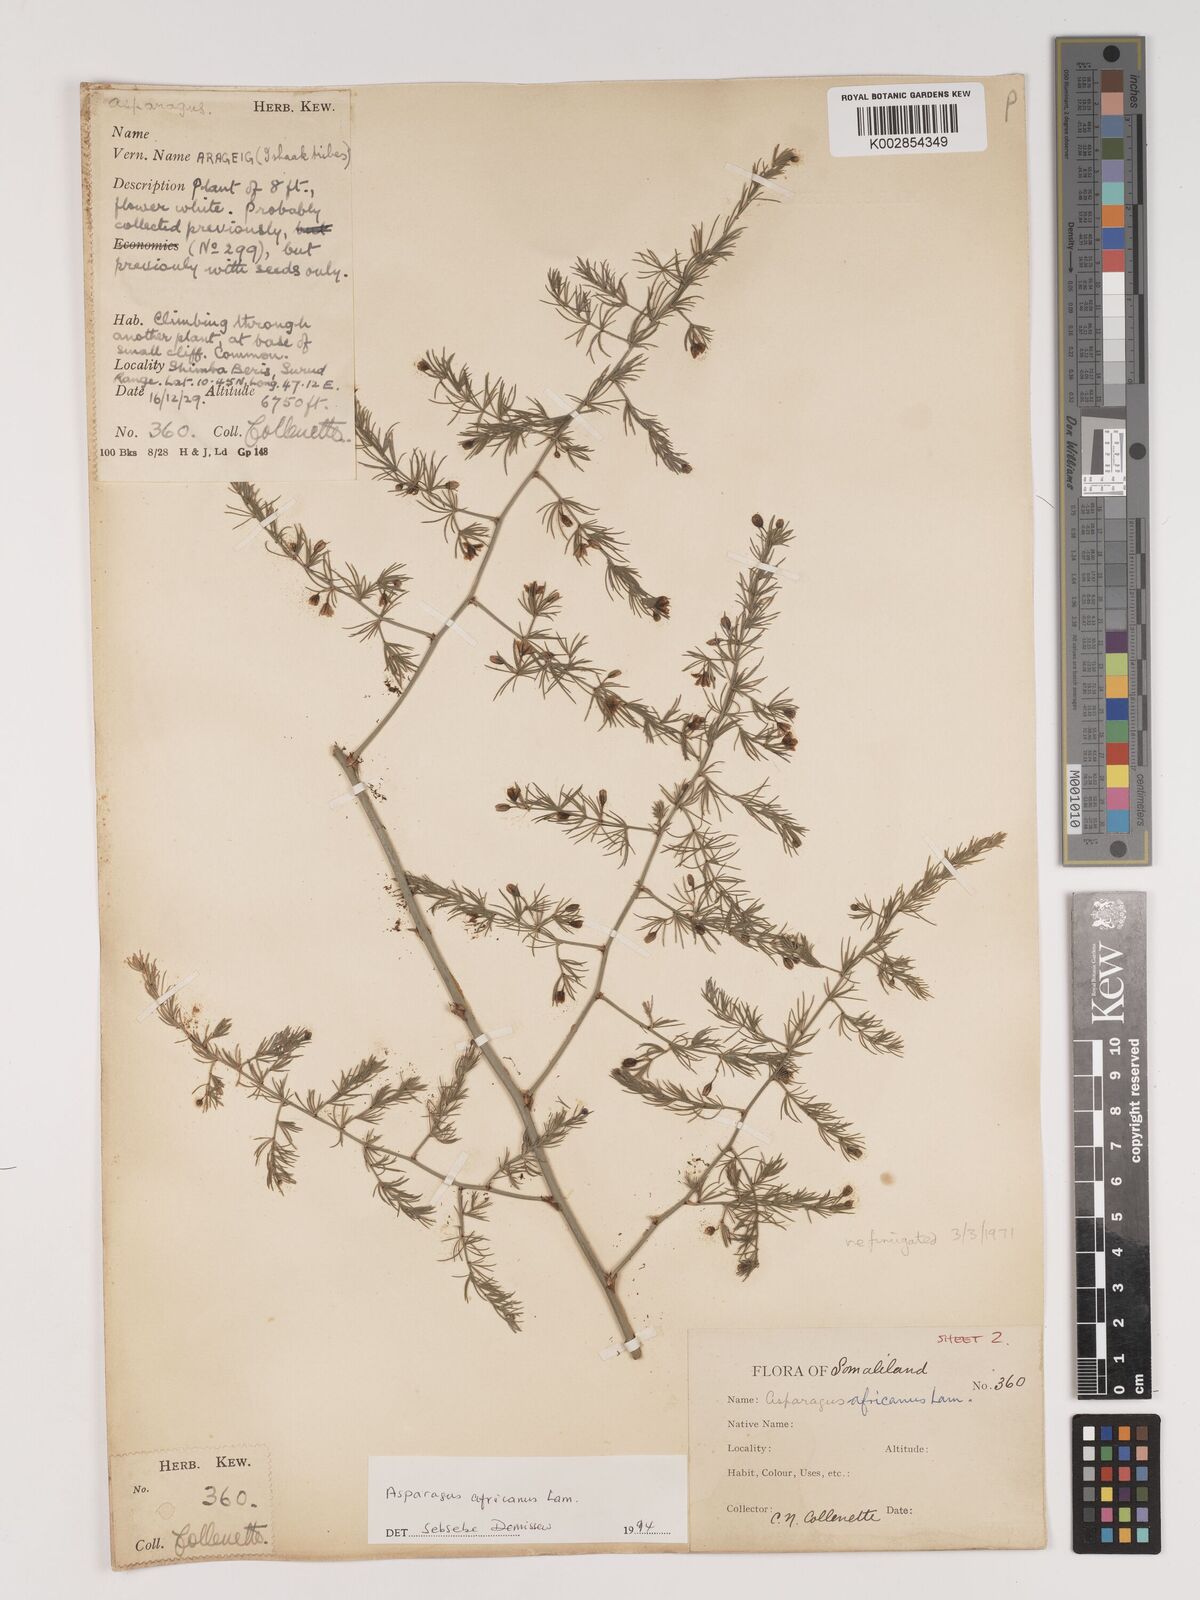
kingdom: Plantae
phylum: Tracheophyta
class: Liliopsida
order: Asparagales
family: Asparagaceae
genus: Asparagus
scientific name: Asparagus africanus
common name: Asparagus-fern
